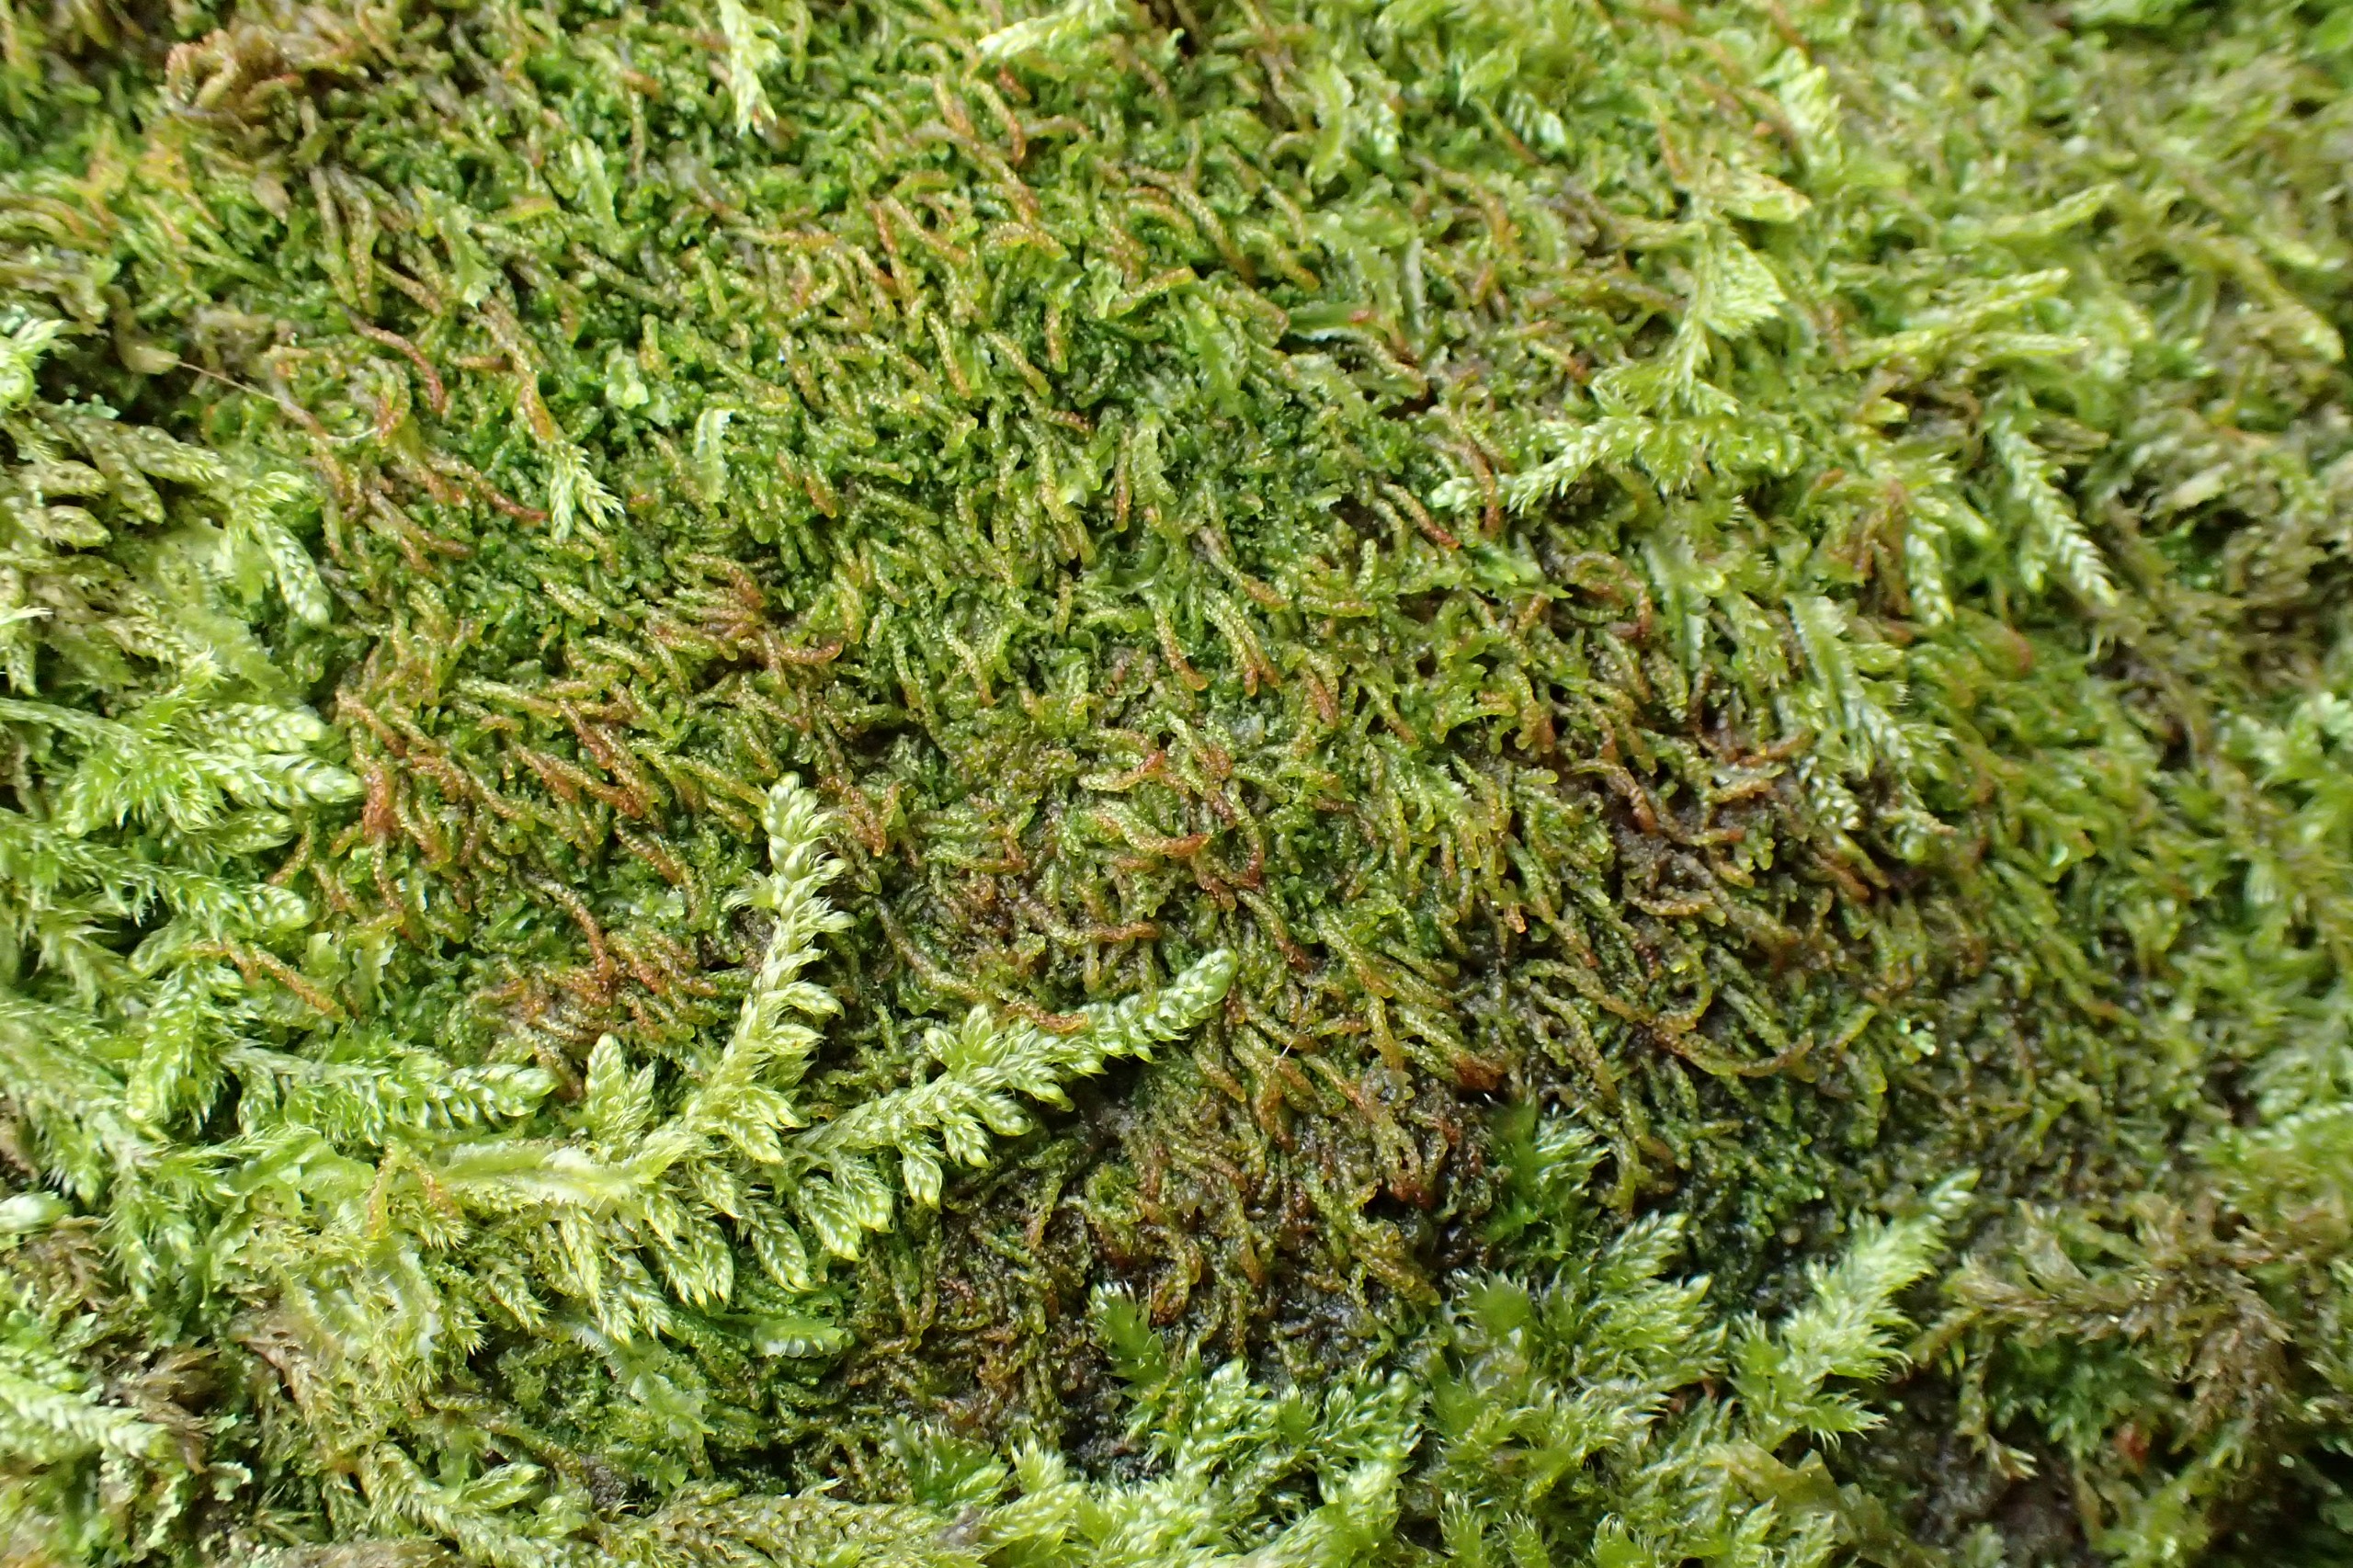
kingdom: Plantae
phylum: Marchantiophyta
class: Jungermanniopsida
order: Jungermanniales
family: Cephaloziaceae
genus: Nowellia
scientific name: Nowellia curvifolia
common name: Krumbladet stødmos
